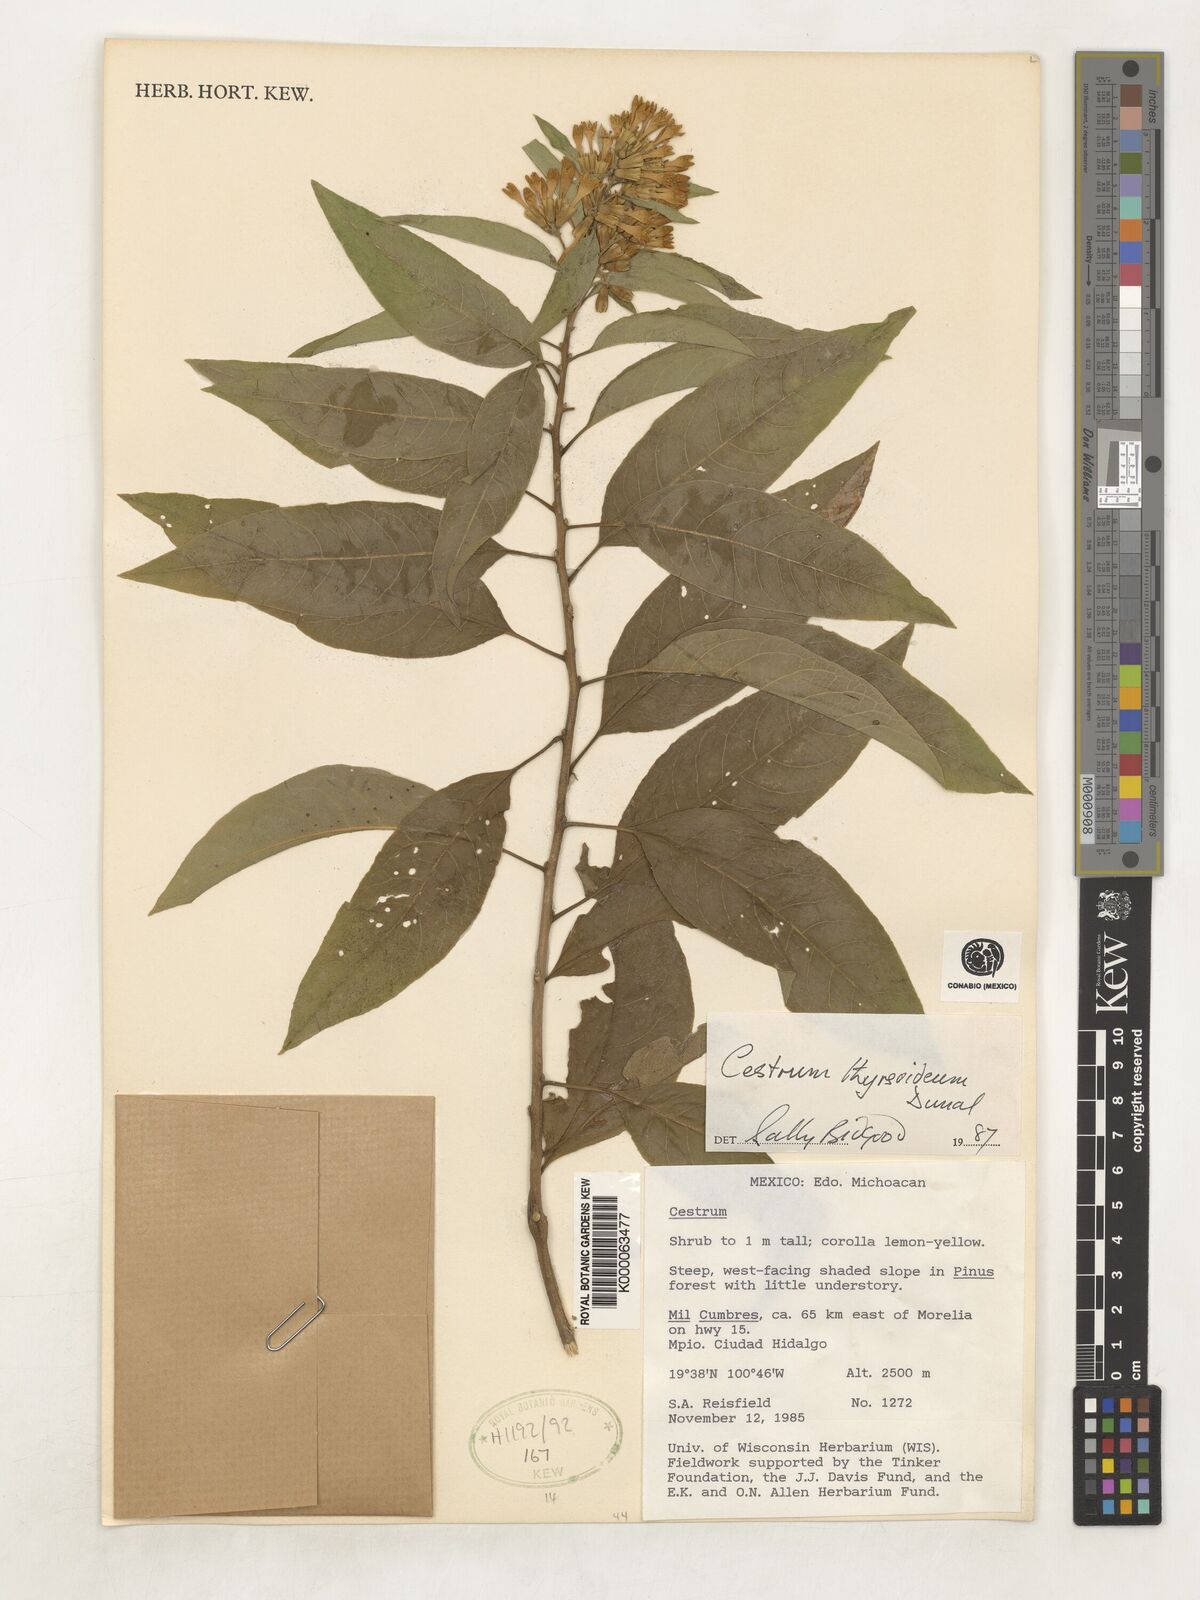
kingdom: Plantae
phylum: Tracheophyta
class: Magnoliopsida
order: Solanales
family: Solanaceae
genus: Cestrum
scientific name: Cestrum
